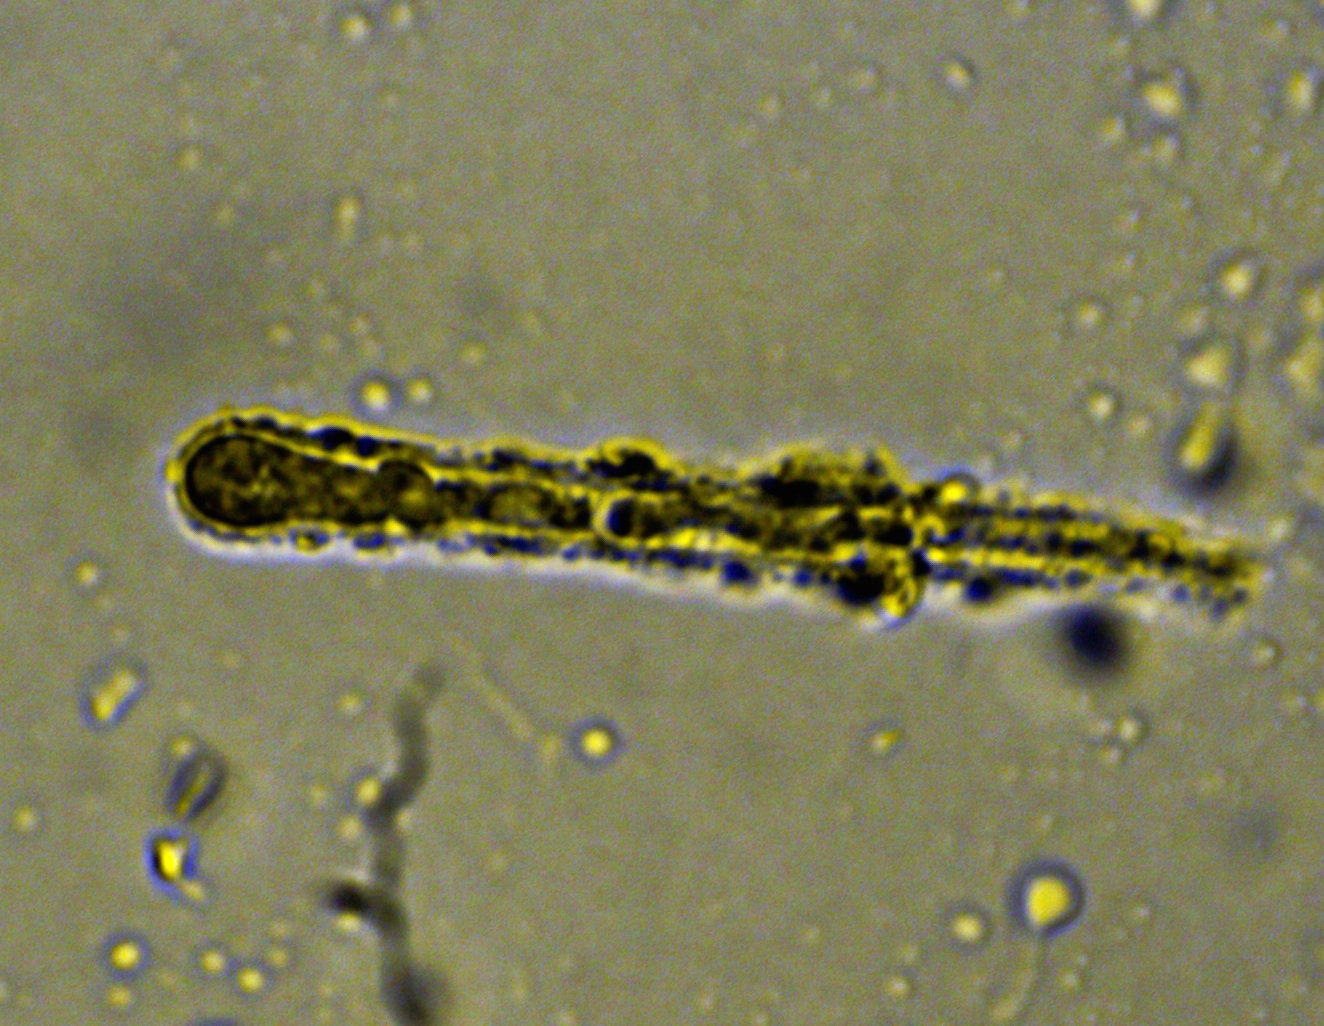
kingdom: Fungi
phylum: Ascomycota
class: Leotiomycetes
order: Helotiales
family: Lachnaceae
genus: Lachnum
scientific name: Lachnum pudibundum
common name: brude-frynseskive
